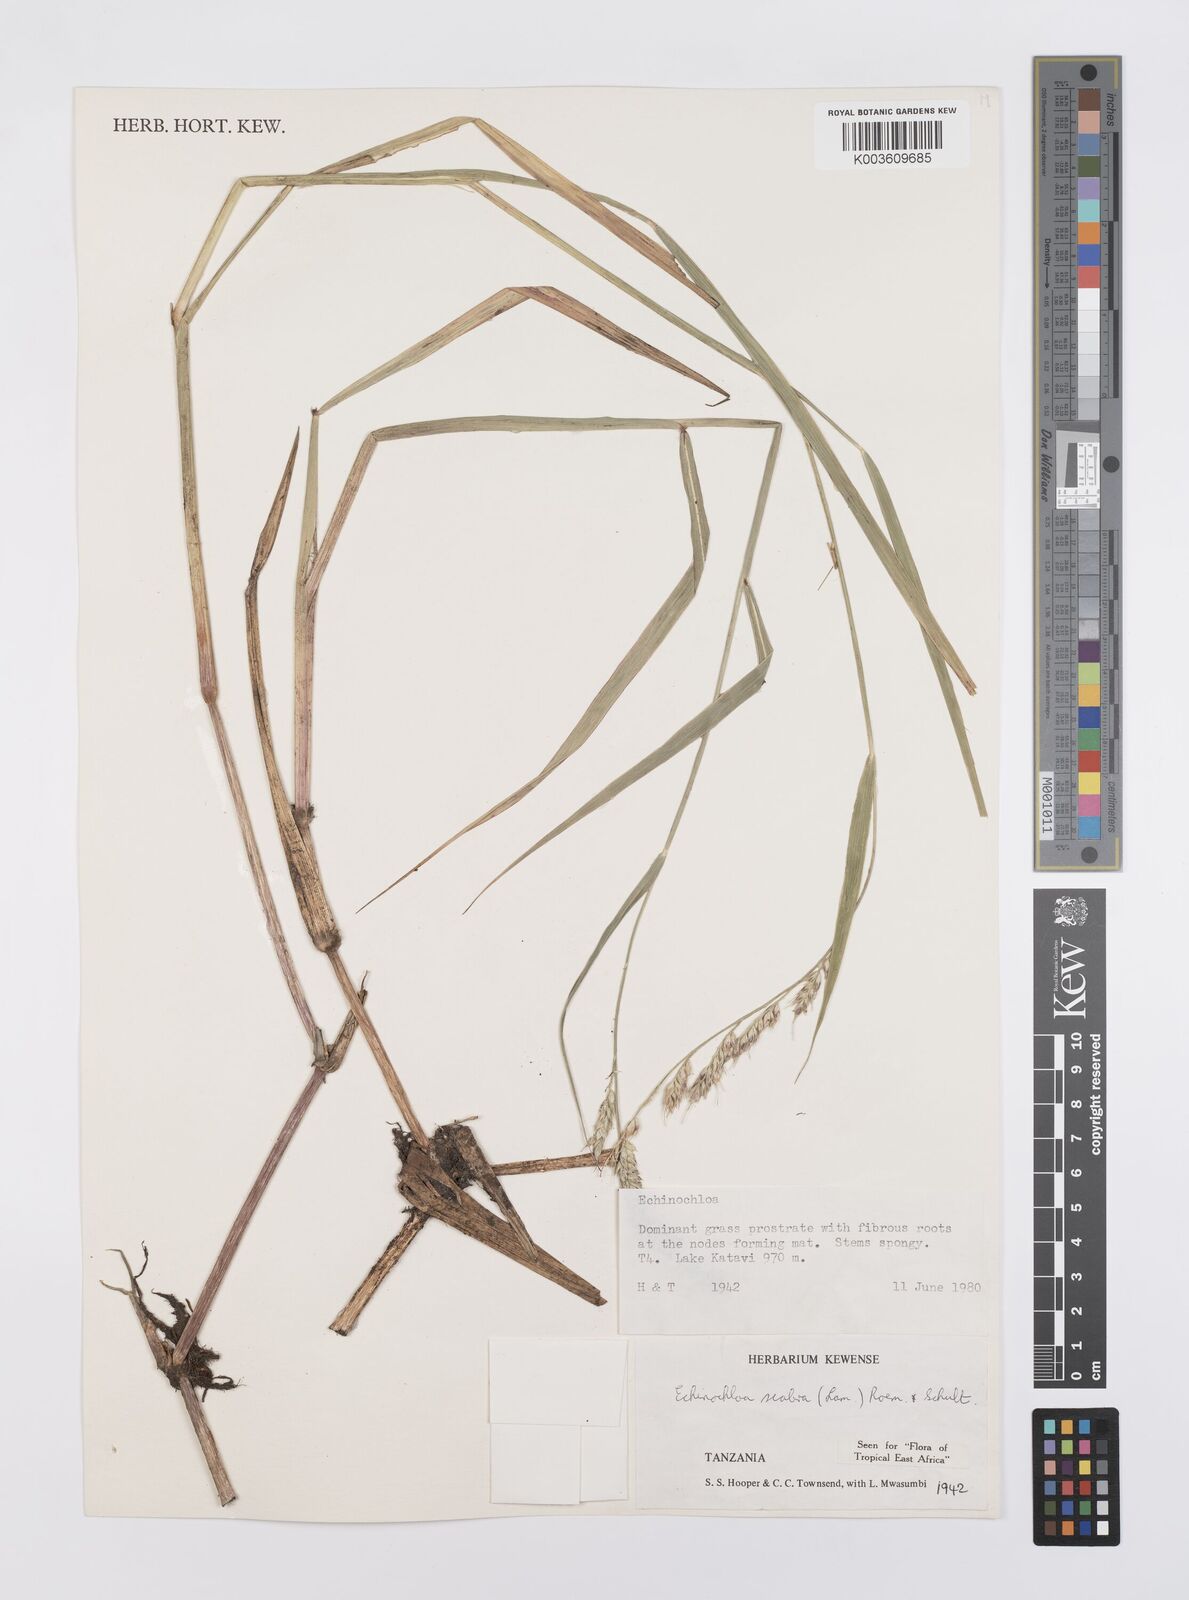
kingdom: Plantae
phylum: Tracheophyta
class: Liliopsida
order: Poales
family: Poaceae
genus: Echinochloa
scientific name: Echinochloa stagnina
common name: Burgu grass
